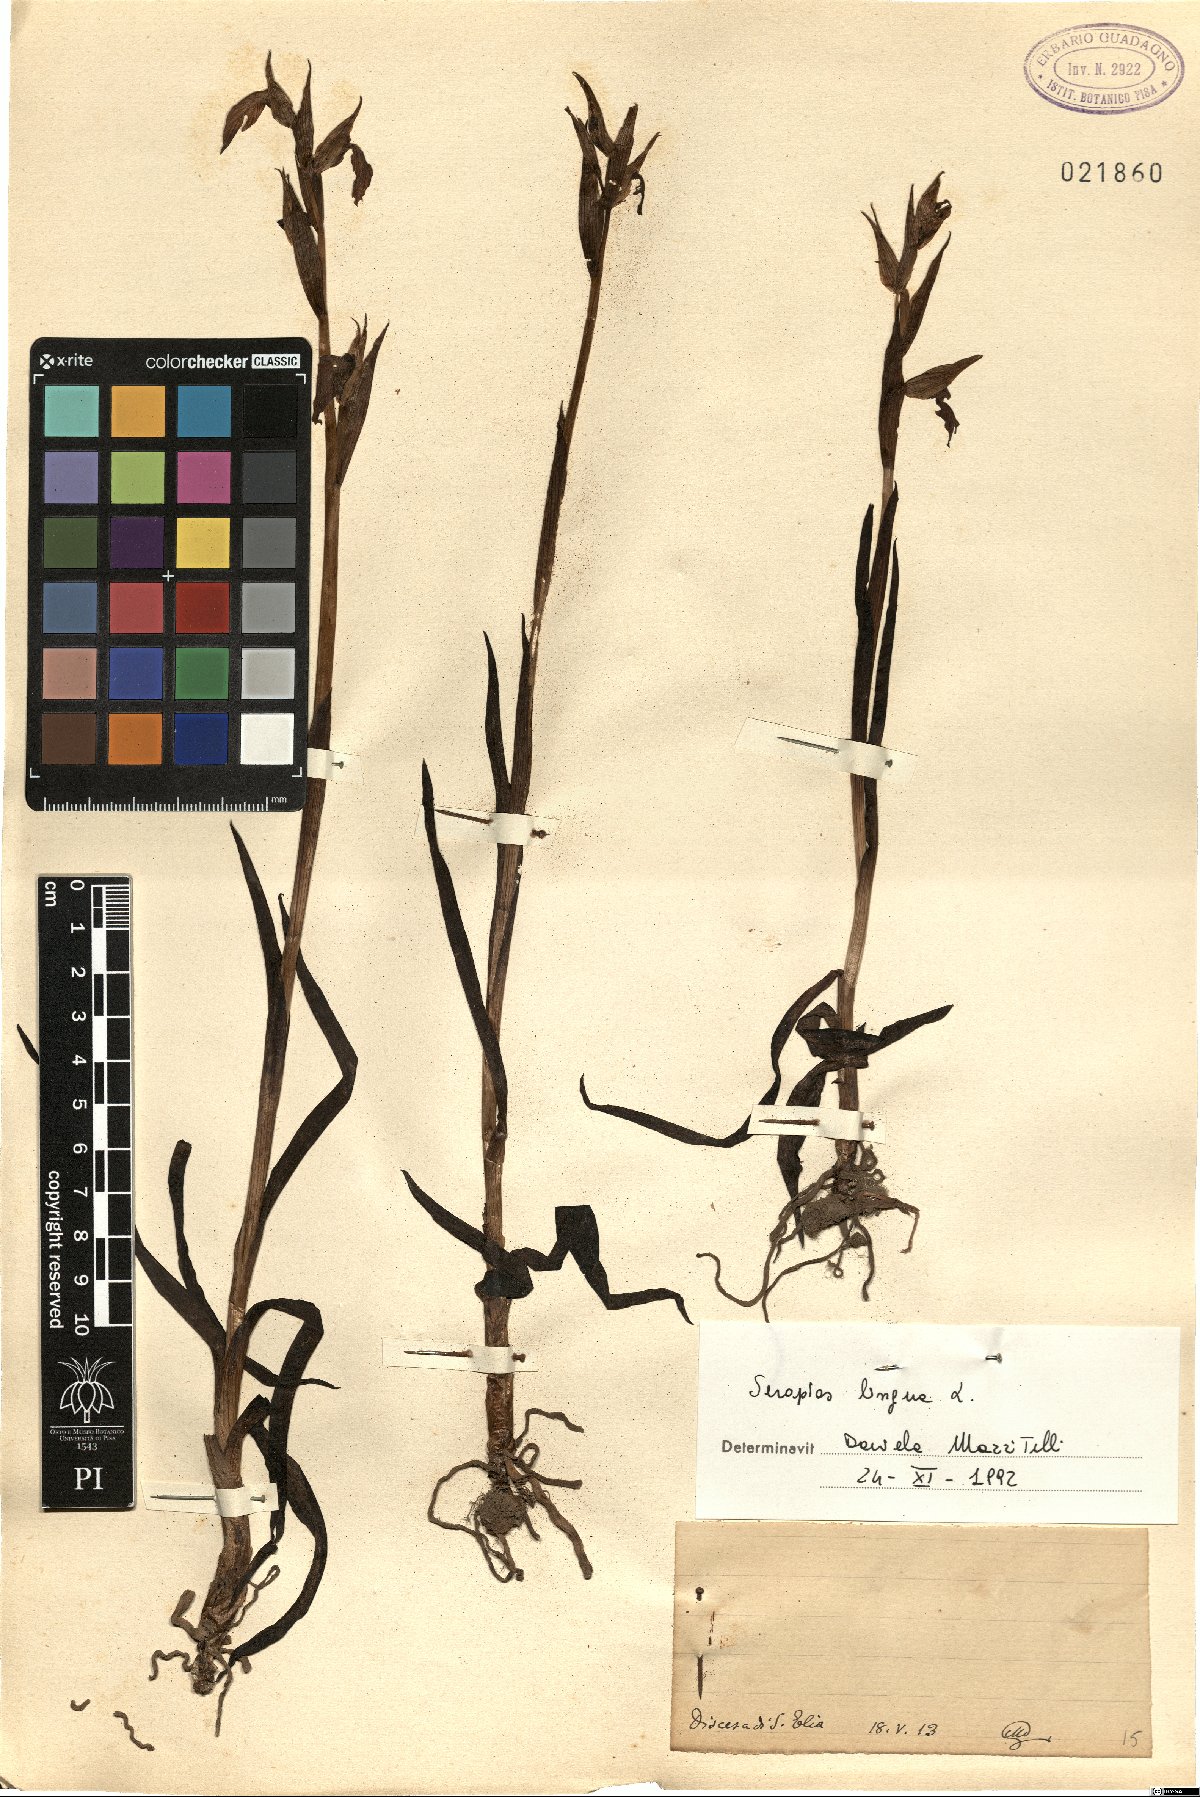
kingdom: Plantae
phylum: Tracheophyta
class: Liliopsida
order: Asparagales
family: Orchidaceae
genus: Serapias
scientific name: Serapias lingua
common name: Tongue-orchid
